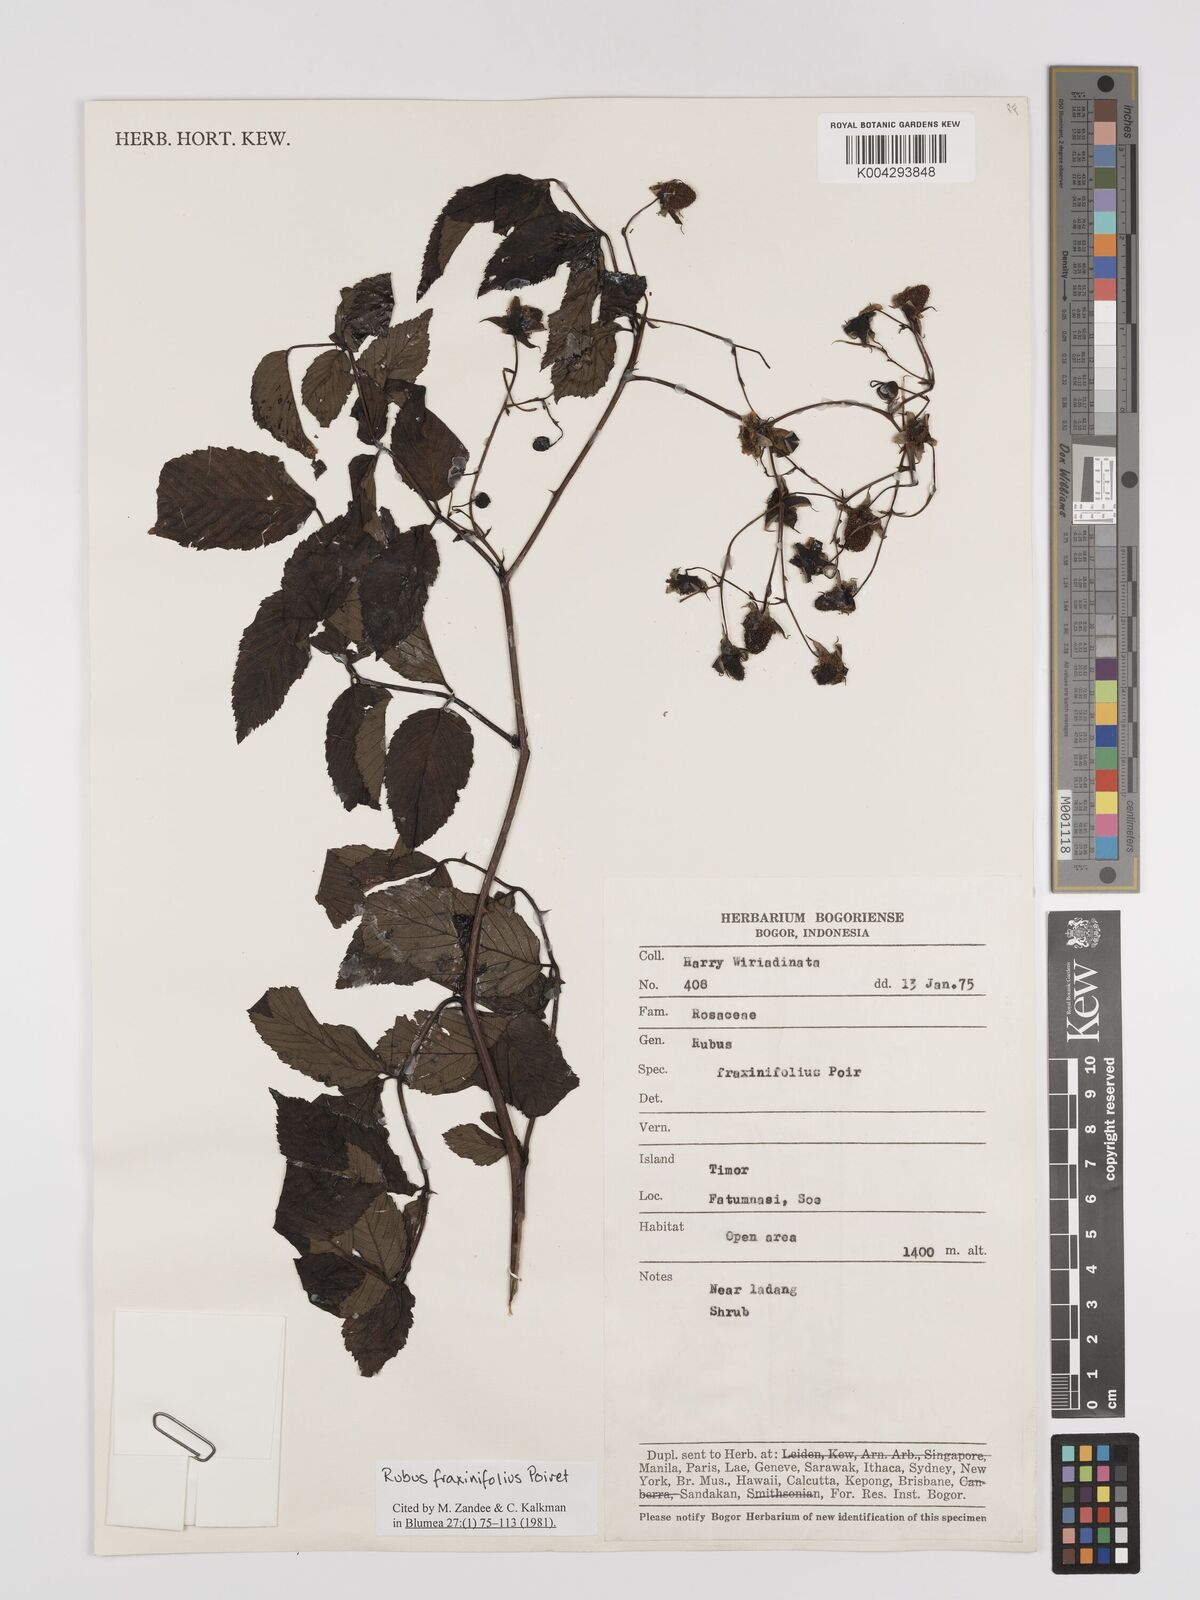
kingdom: Plantae
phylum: Tracheophyta
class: Magnoliopsida
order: Rosales
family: Rosaceae
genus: Rubus
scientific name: Rubus fraxinifolius
